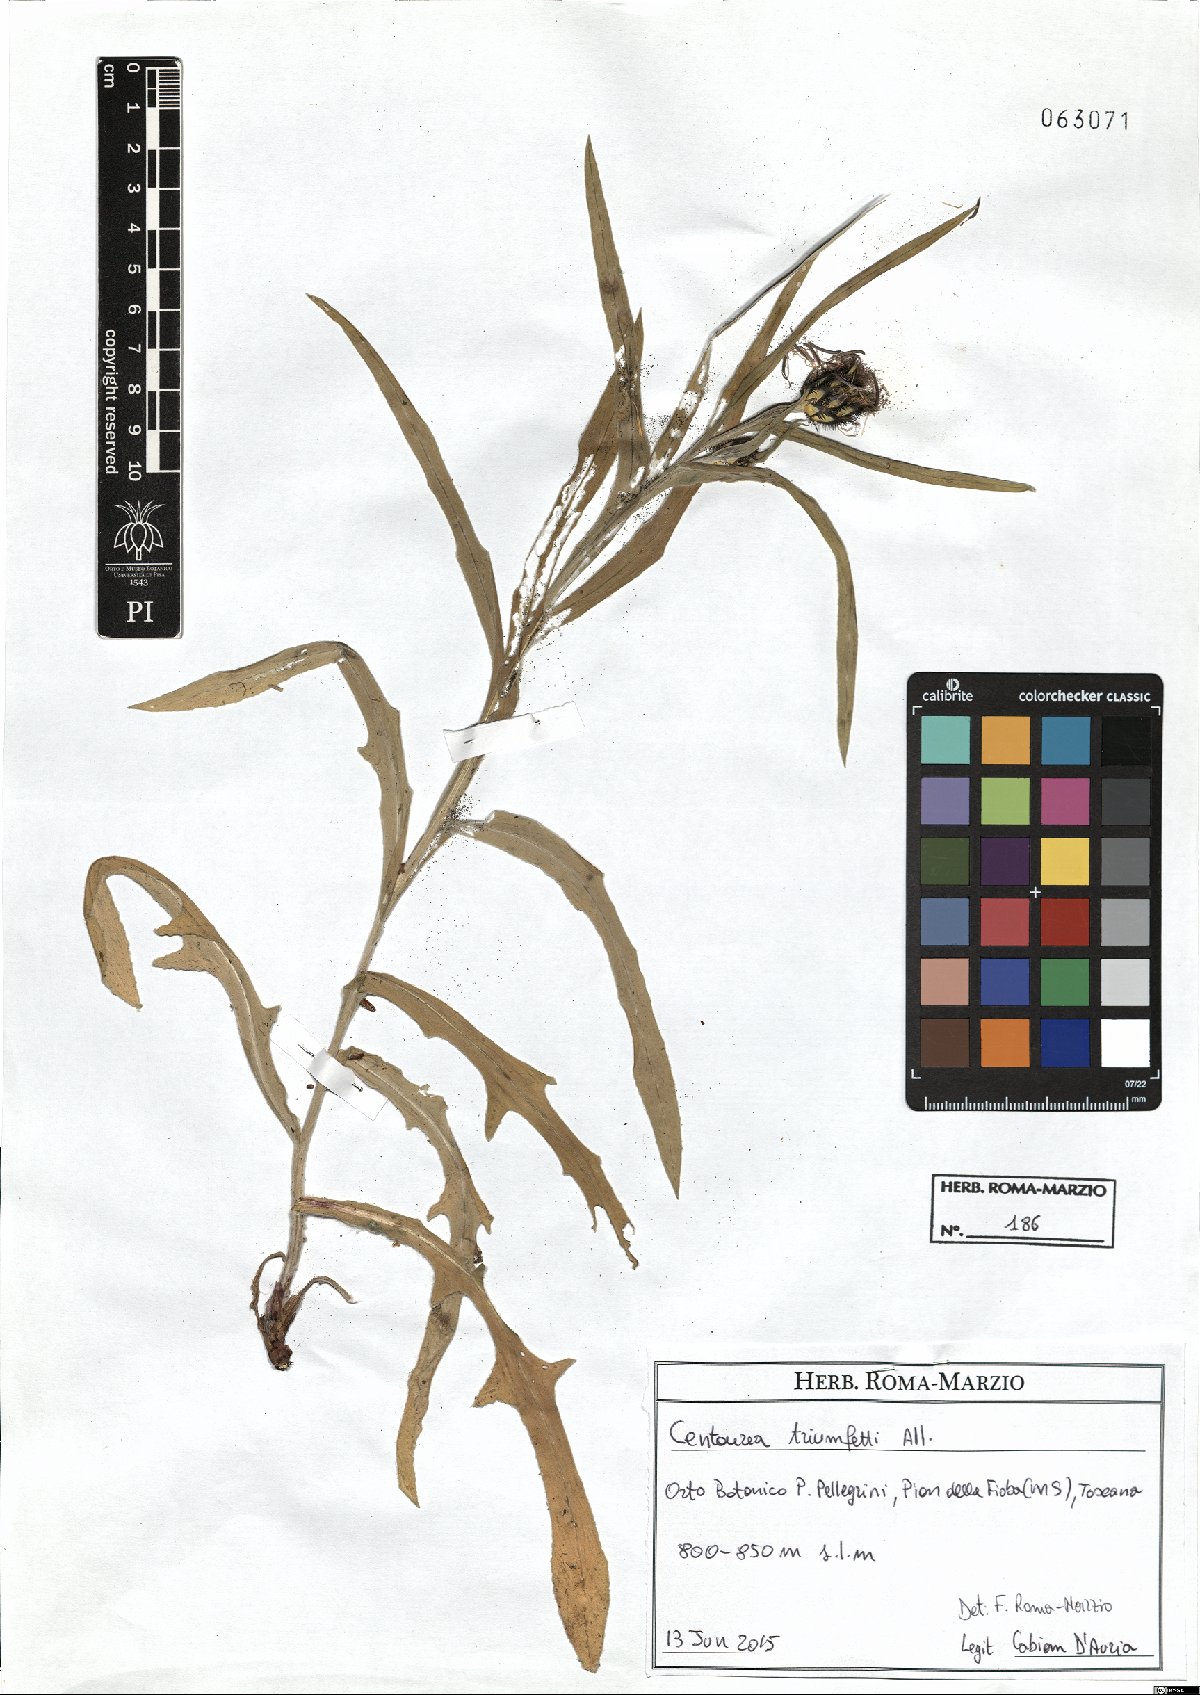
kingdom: Plantae
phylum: Tracheophyta
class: Magnoliopsida
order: Asterales
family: Asteraceae
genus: Centaurea
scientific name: Centaurea triumfettii
